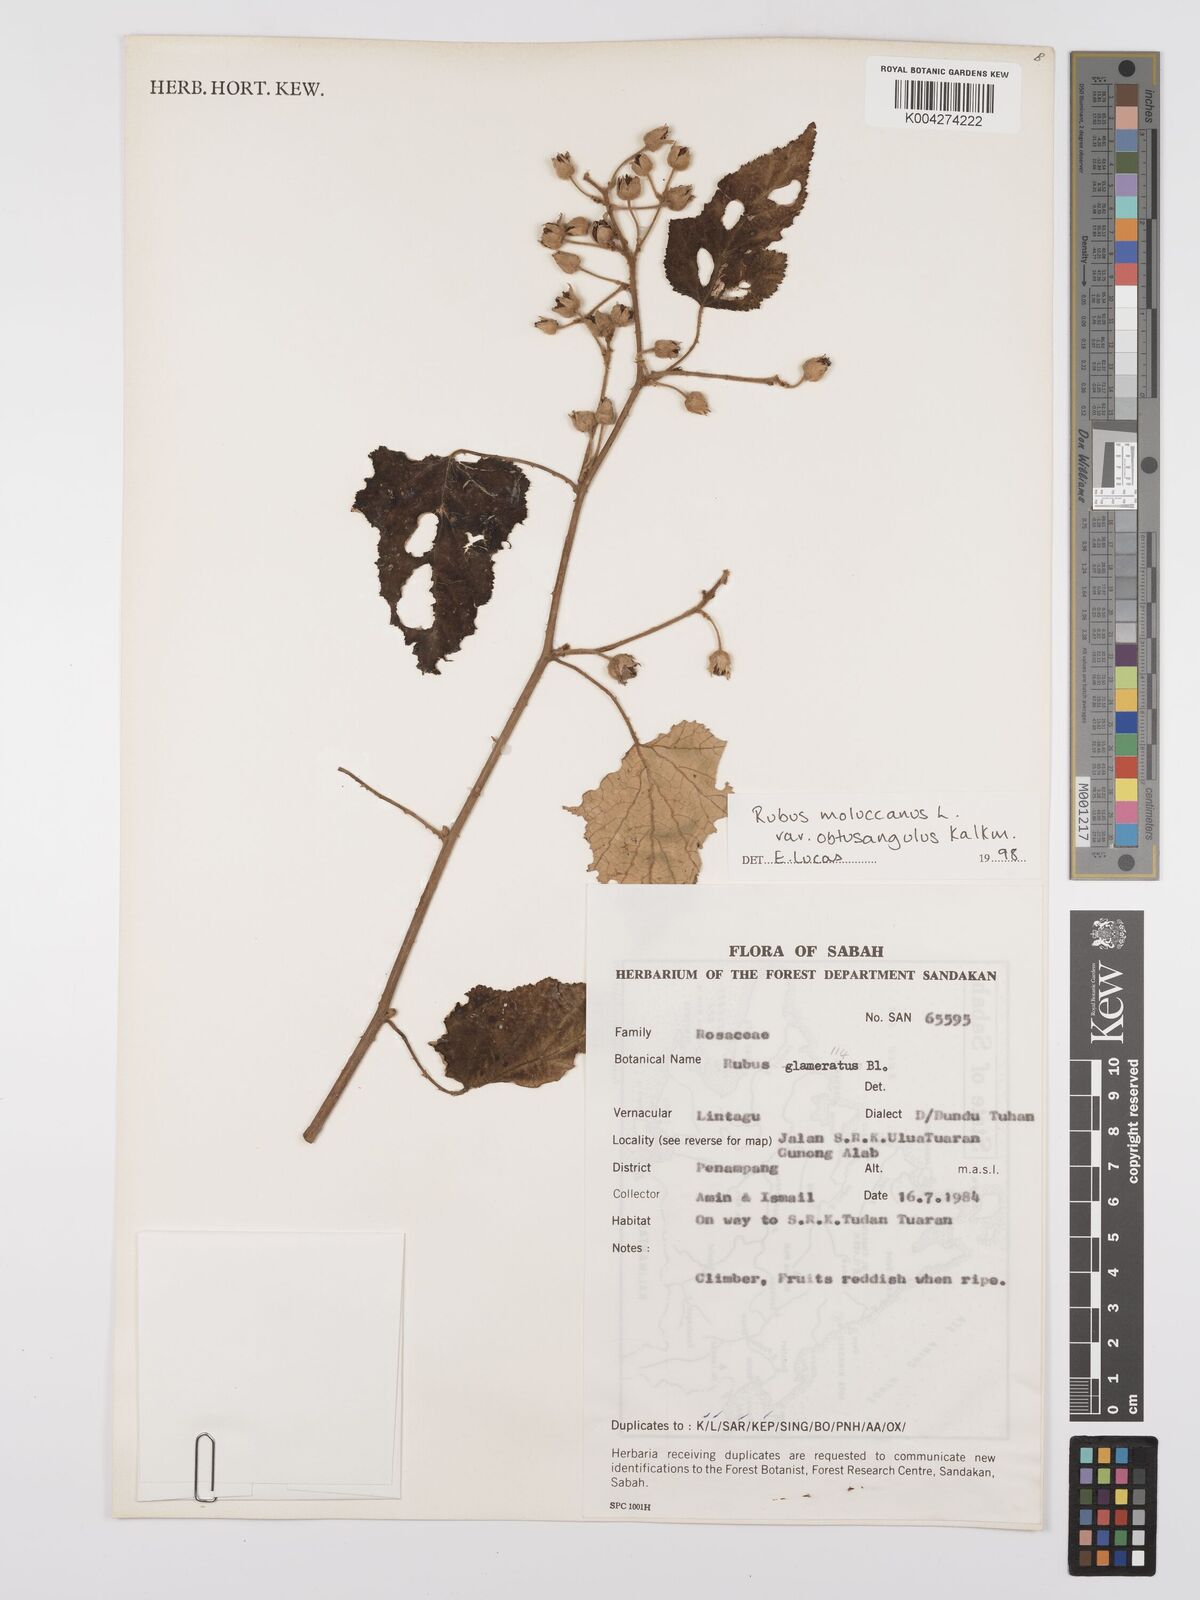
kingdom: Plantae
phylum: Tracheophyta
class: Magnoliopsida
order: Rosales
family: Rosaceae
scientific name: Rosaceae
